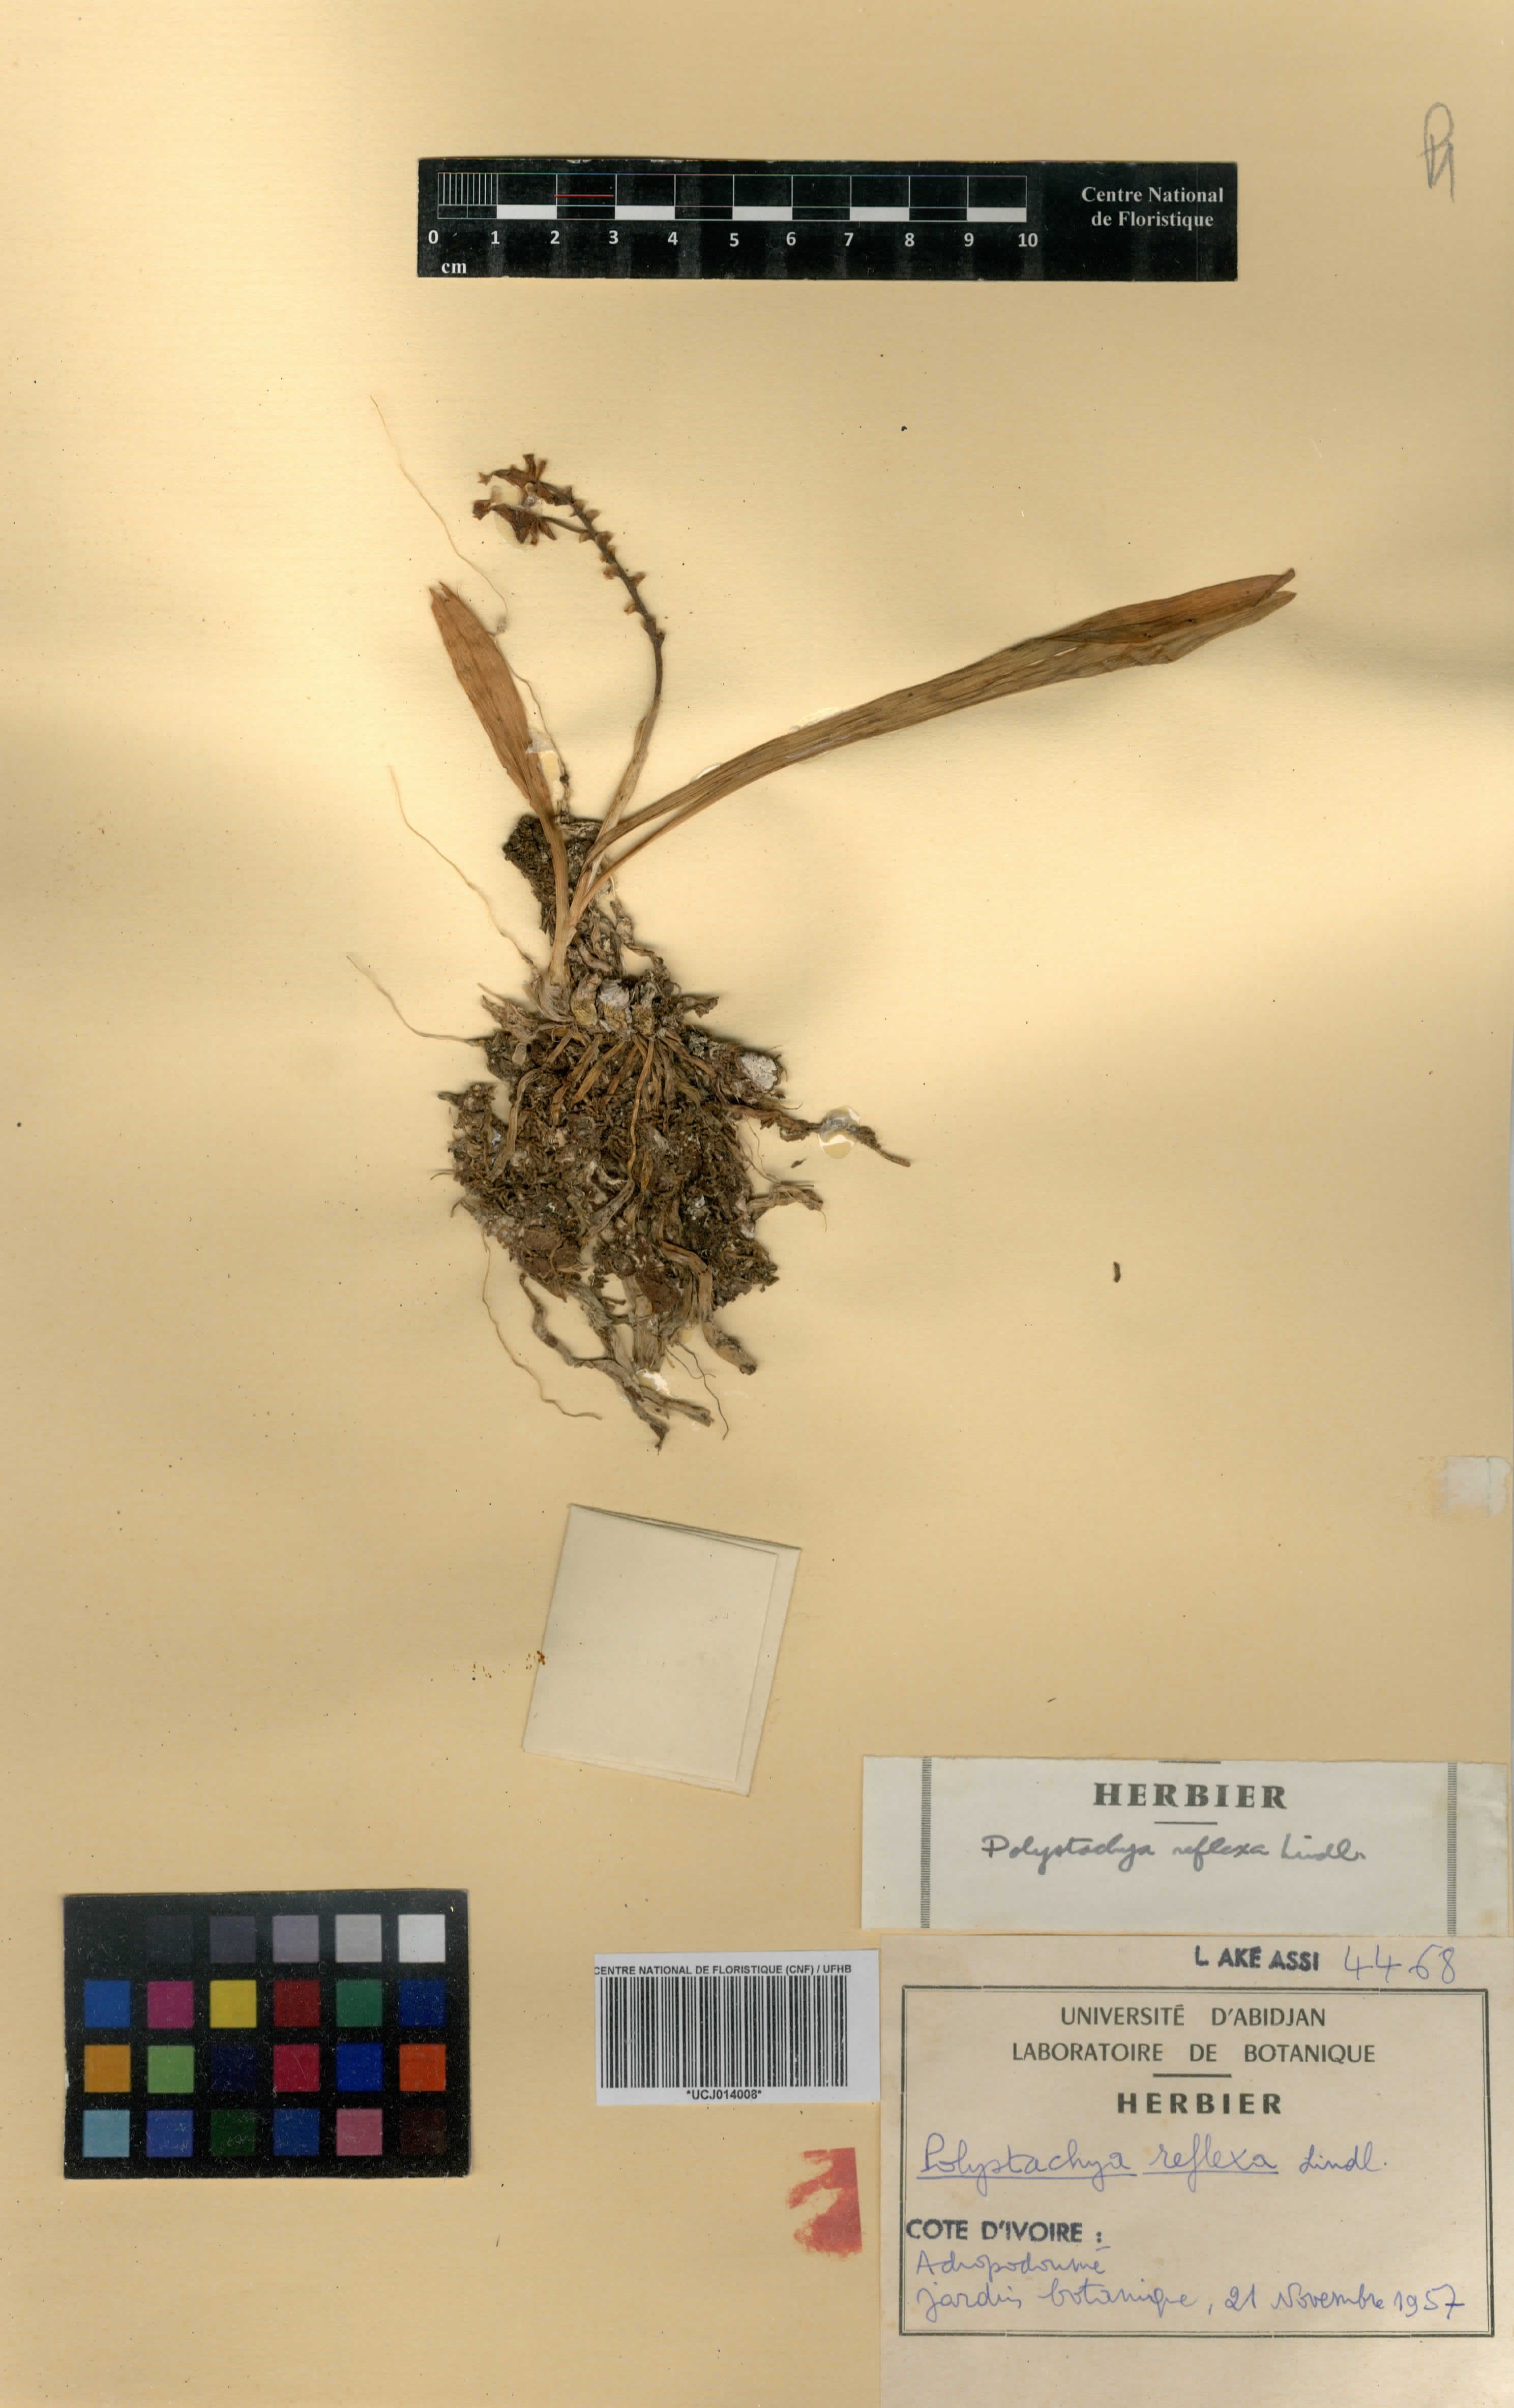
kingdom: Plantae
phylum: Tracheophyta
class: Liliopsida
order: Asparagales
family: Orchidaceae
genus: Polystachya
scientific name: Polystachya reflexa
